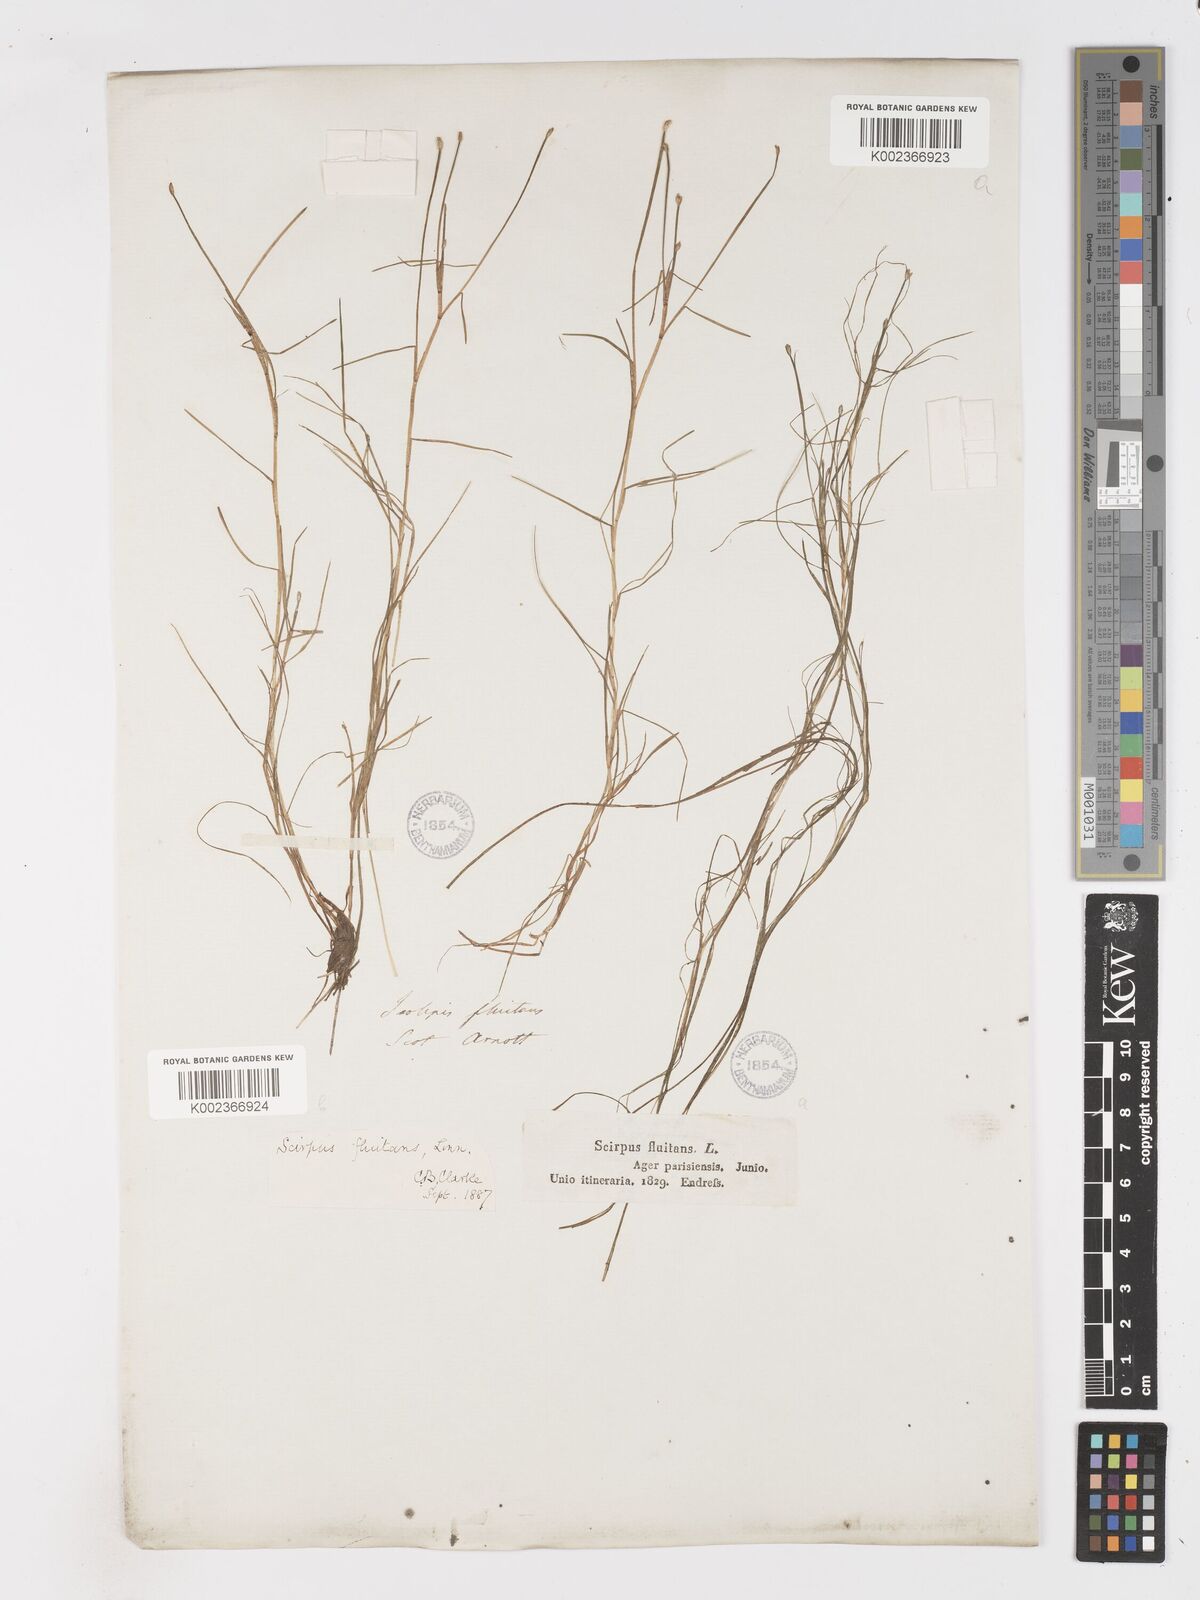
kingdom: Plantae
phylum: Tracheophyta
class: Liliopsida
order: Poales
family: Cyperaceae
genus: Isolepis
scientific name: Isolepis fluitans
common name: Floating club-rush
